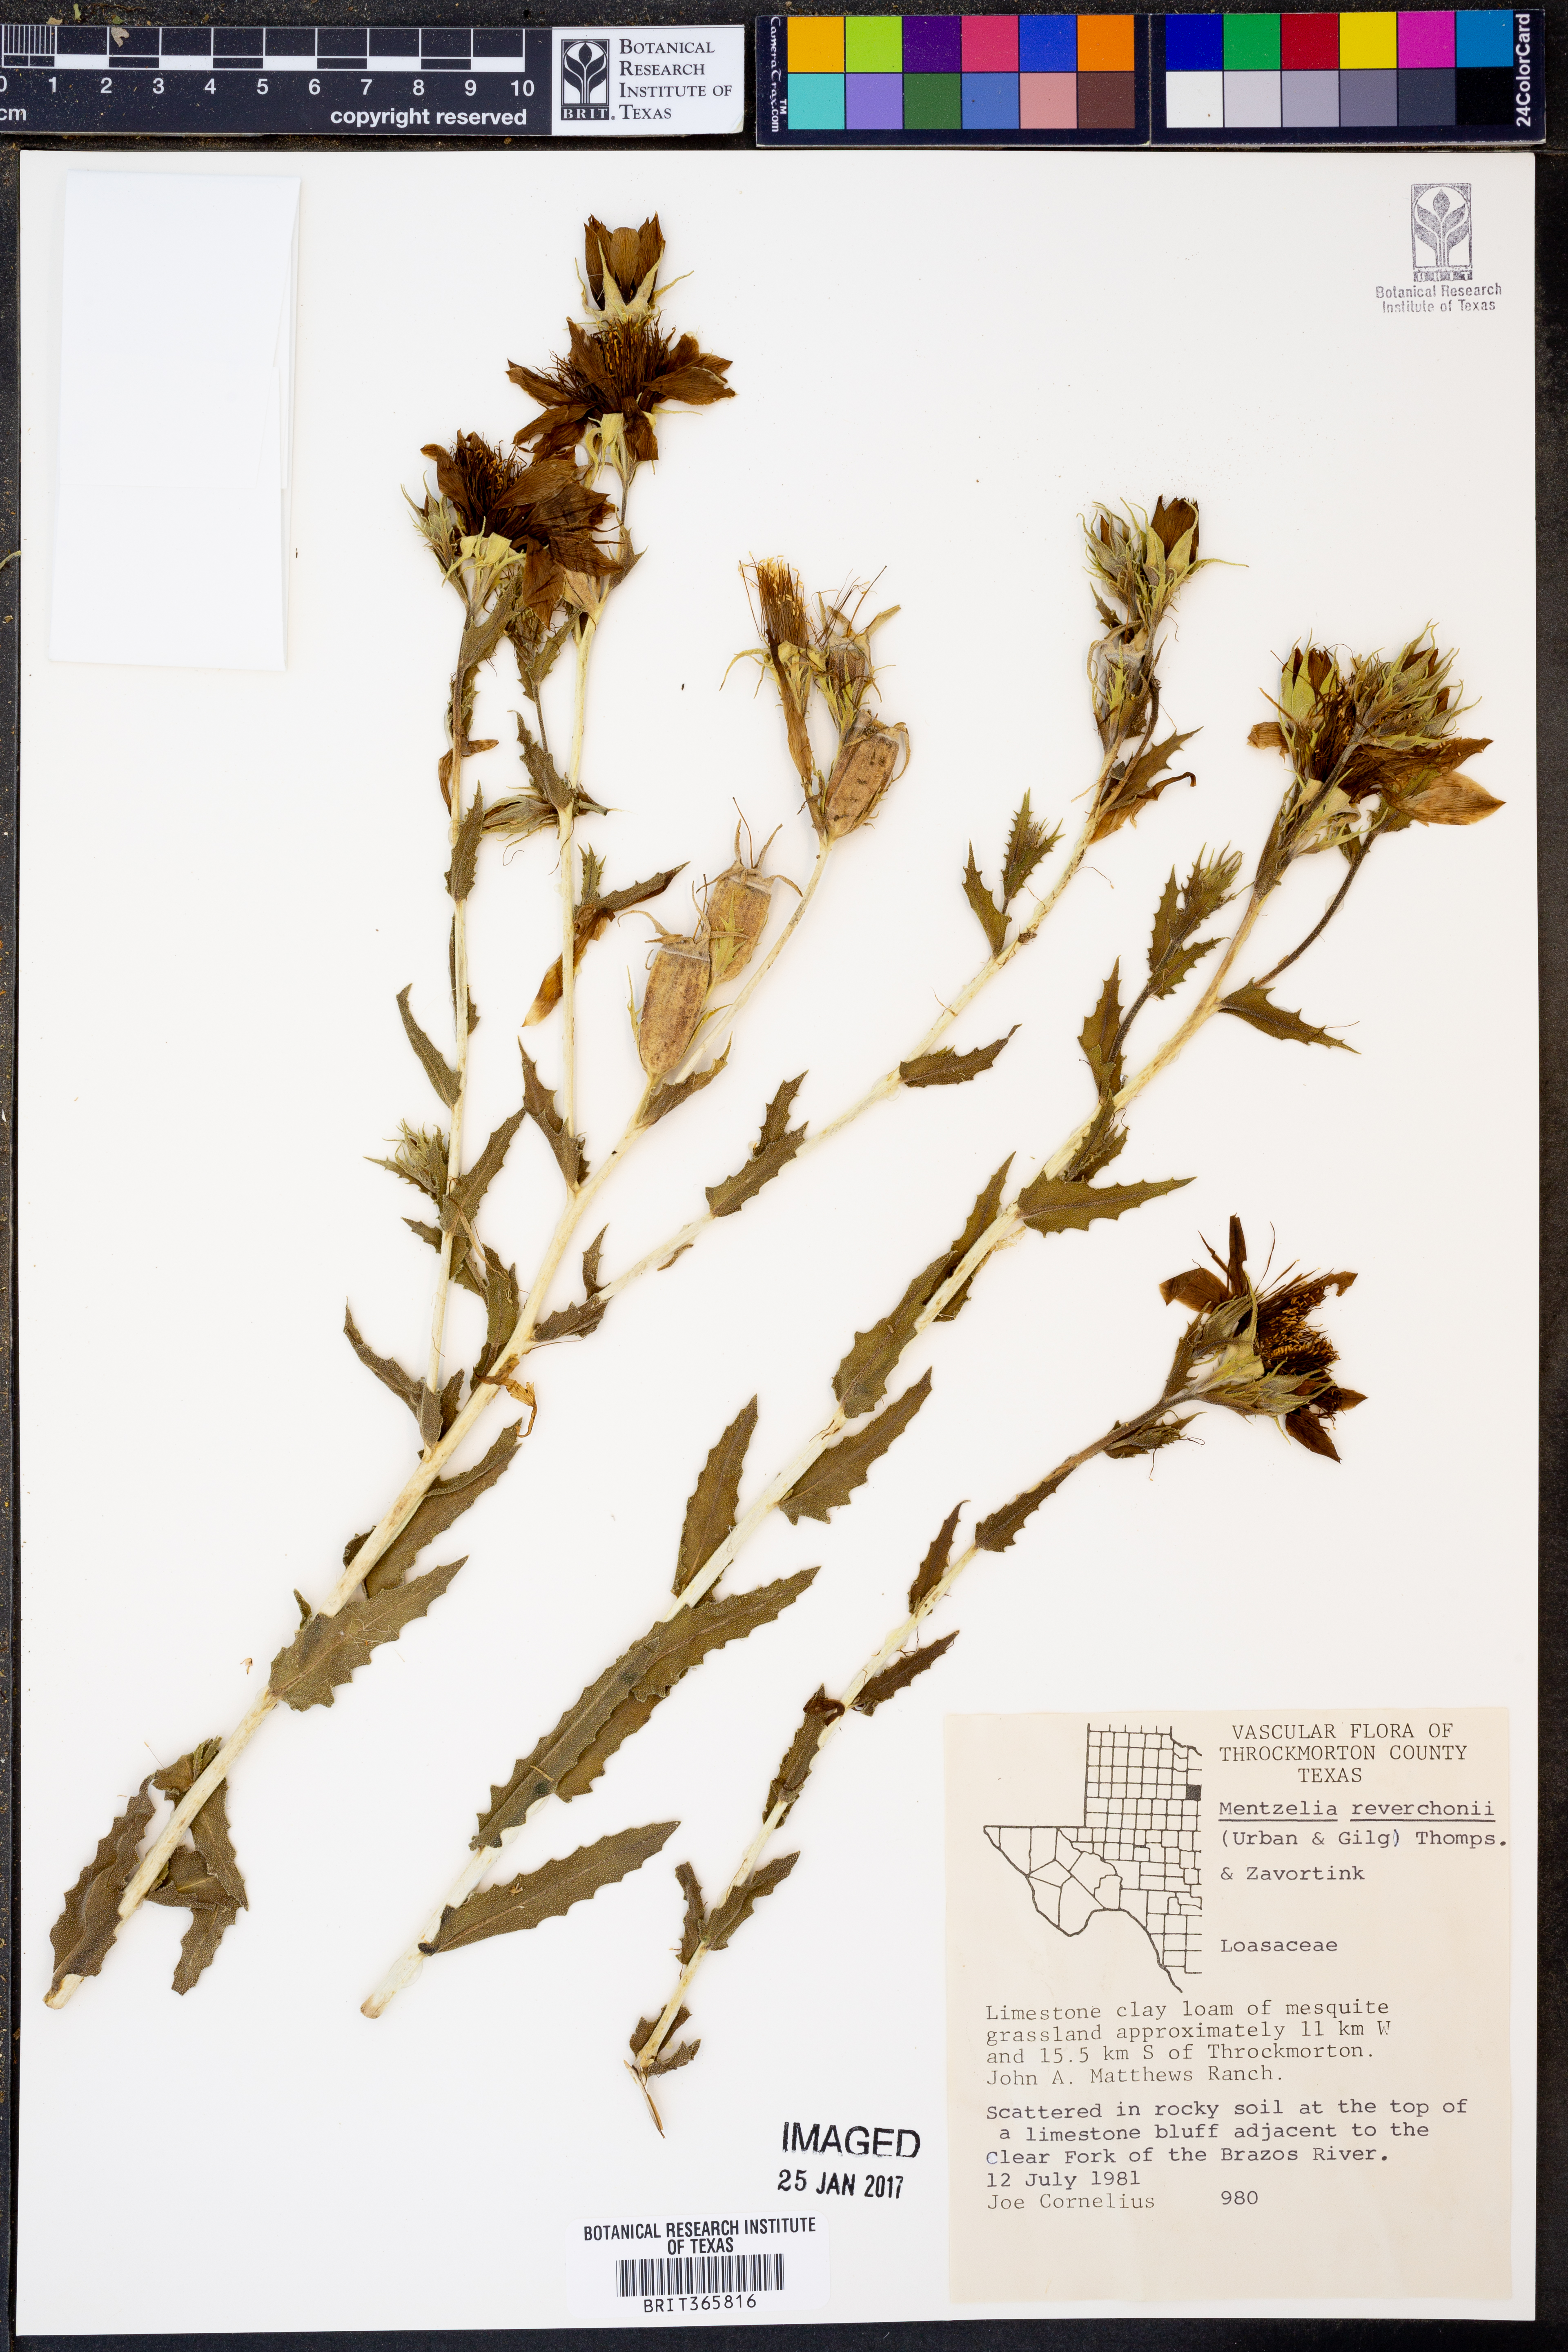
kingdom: Plantae
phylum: Tracheophyta
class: Magnoliopsida
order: Cornales
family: Loasaceae
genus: Mentzelia
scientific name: Mentzelia reverchonii
